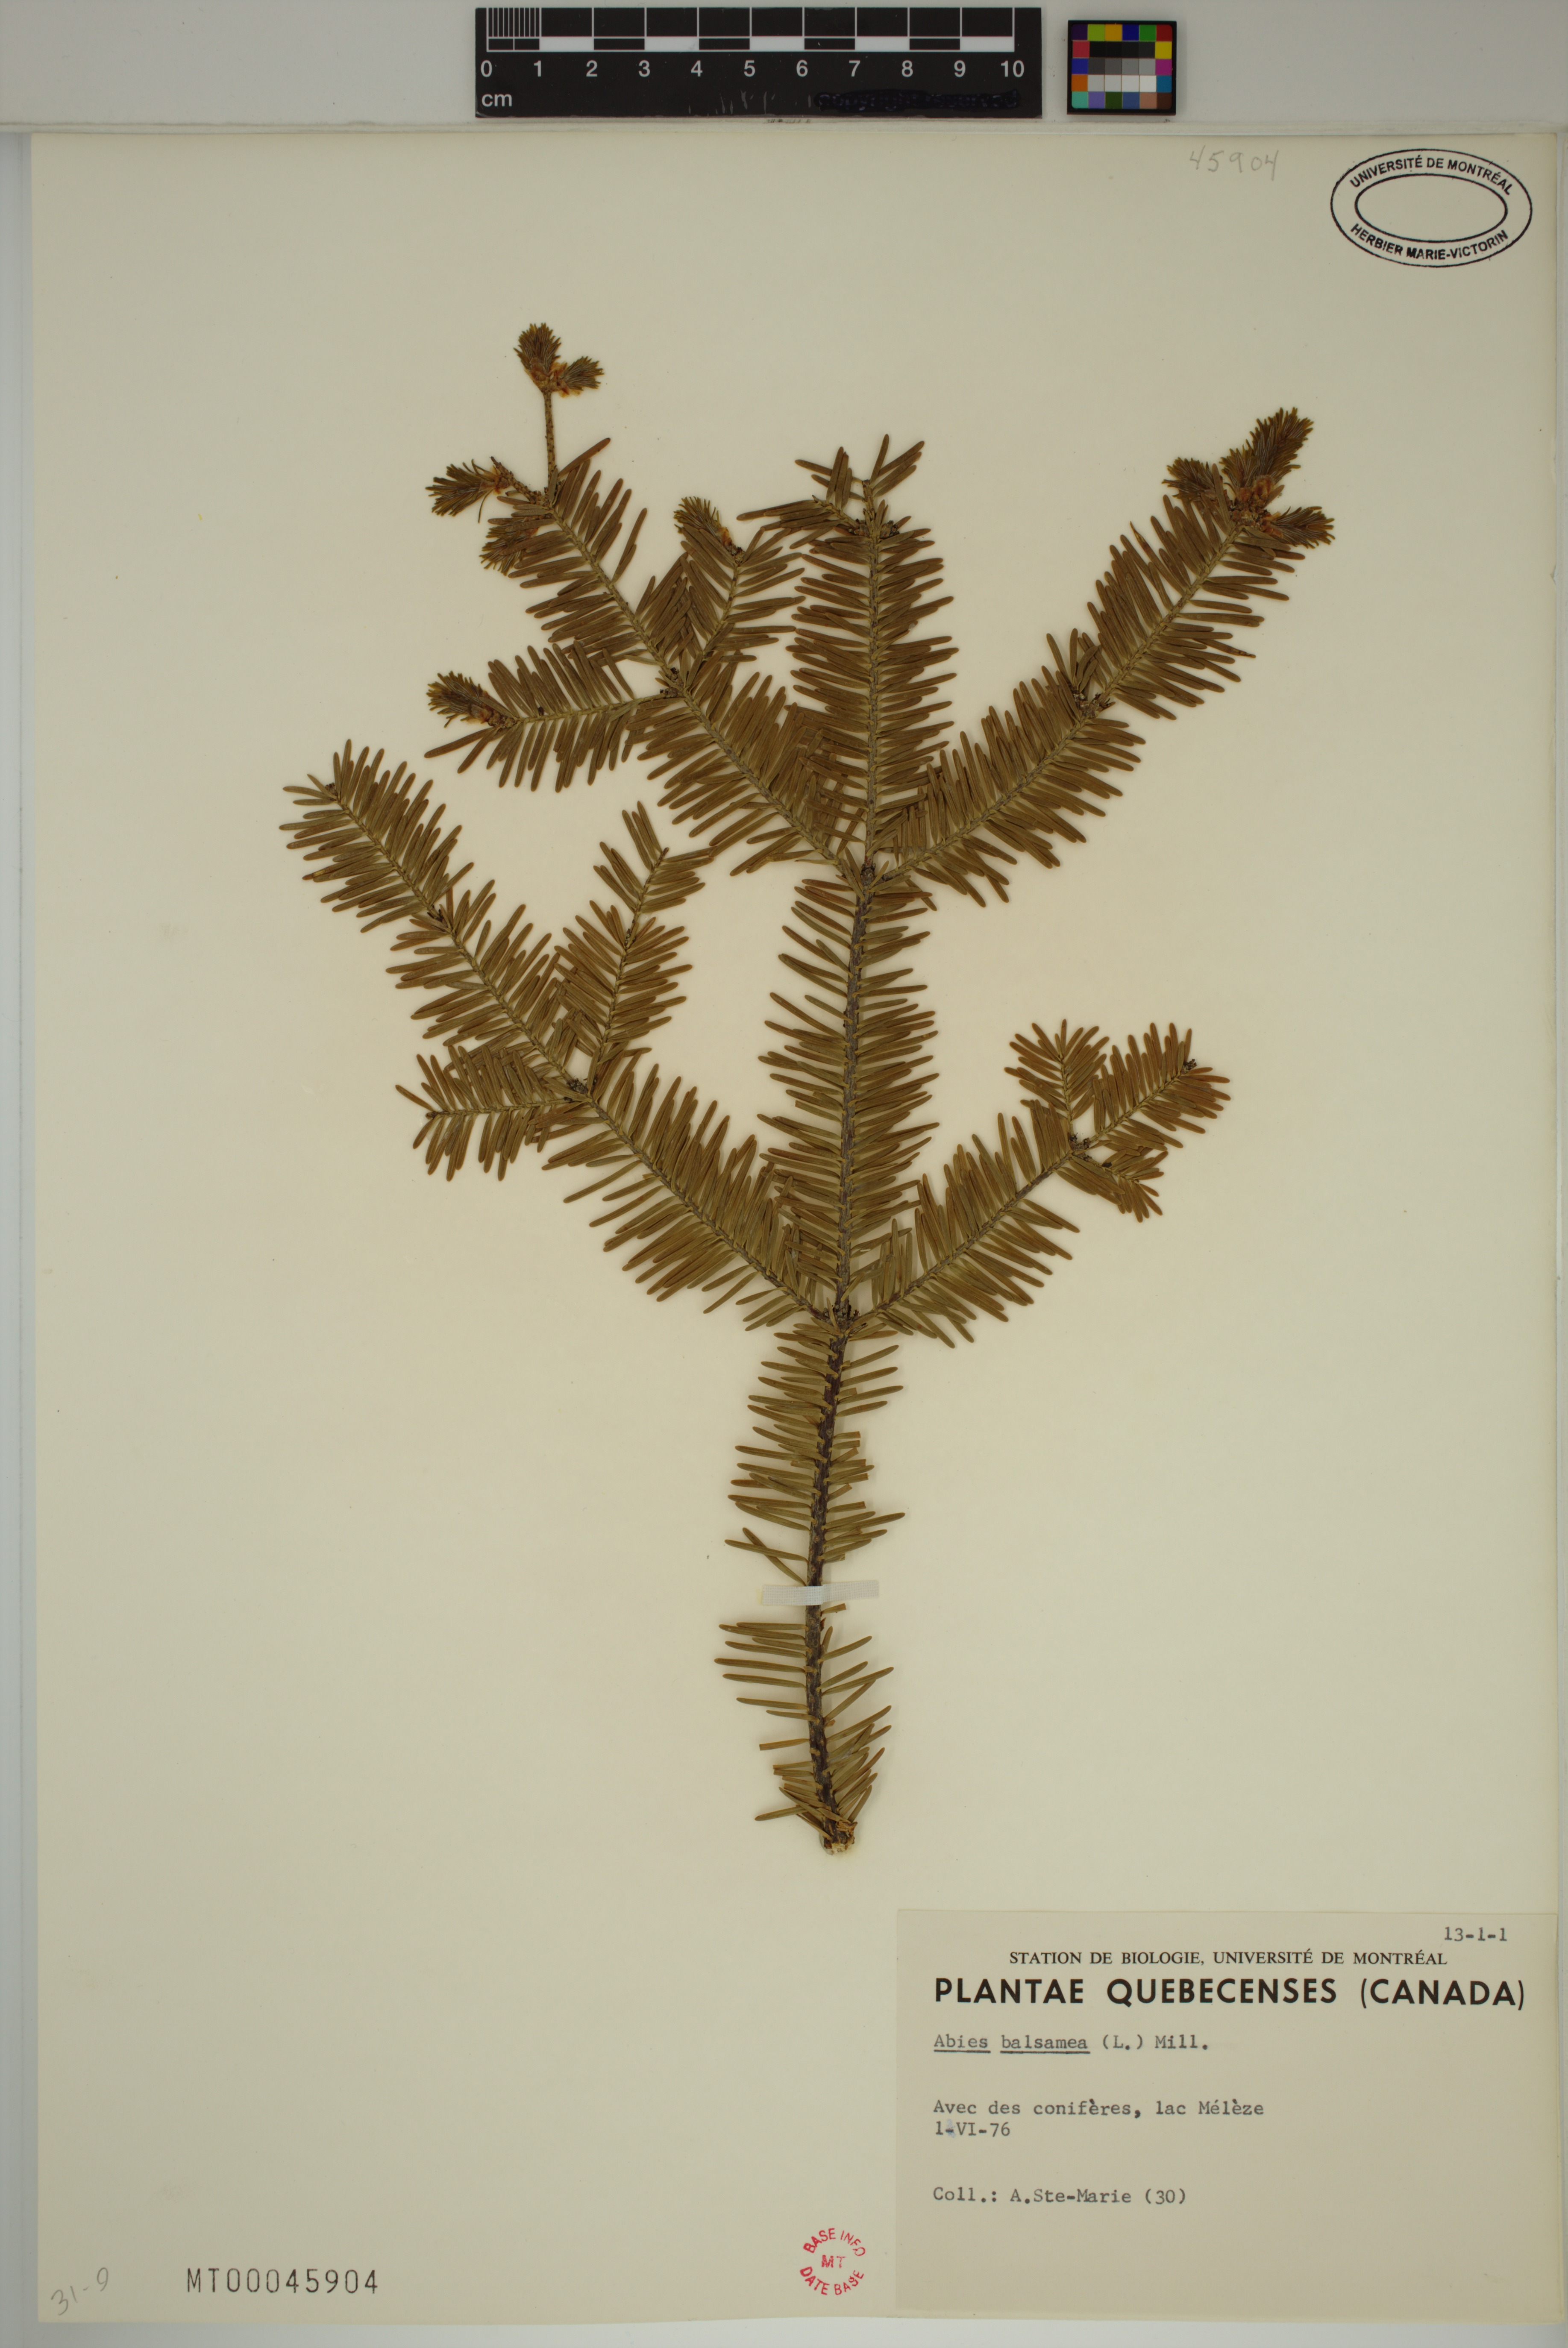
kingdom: Plantae
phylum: Tracheophyta
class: Pinopsida
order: Pinales
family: Pinaceae
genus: Abies
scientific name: Abies balsamea
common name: Balsam fir
